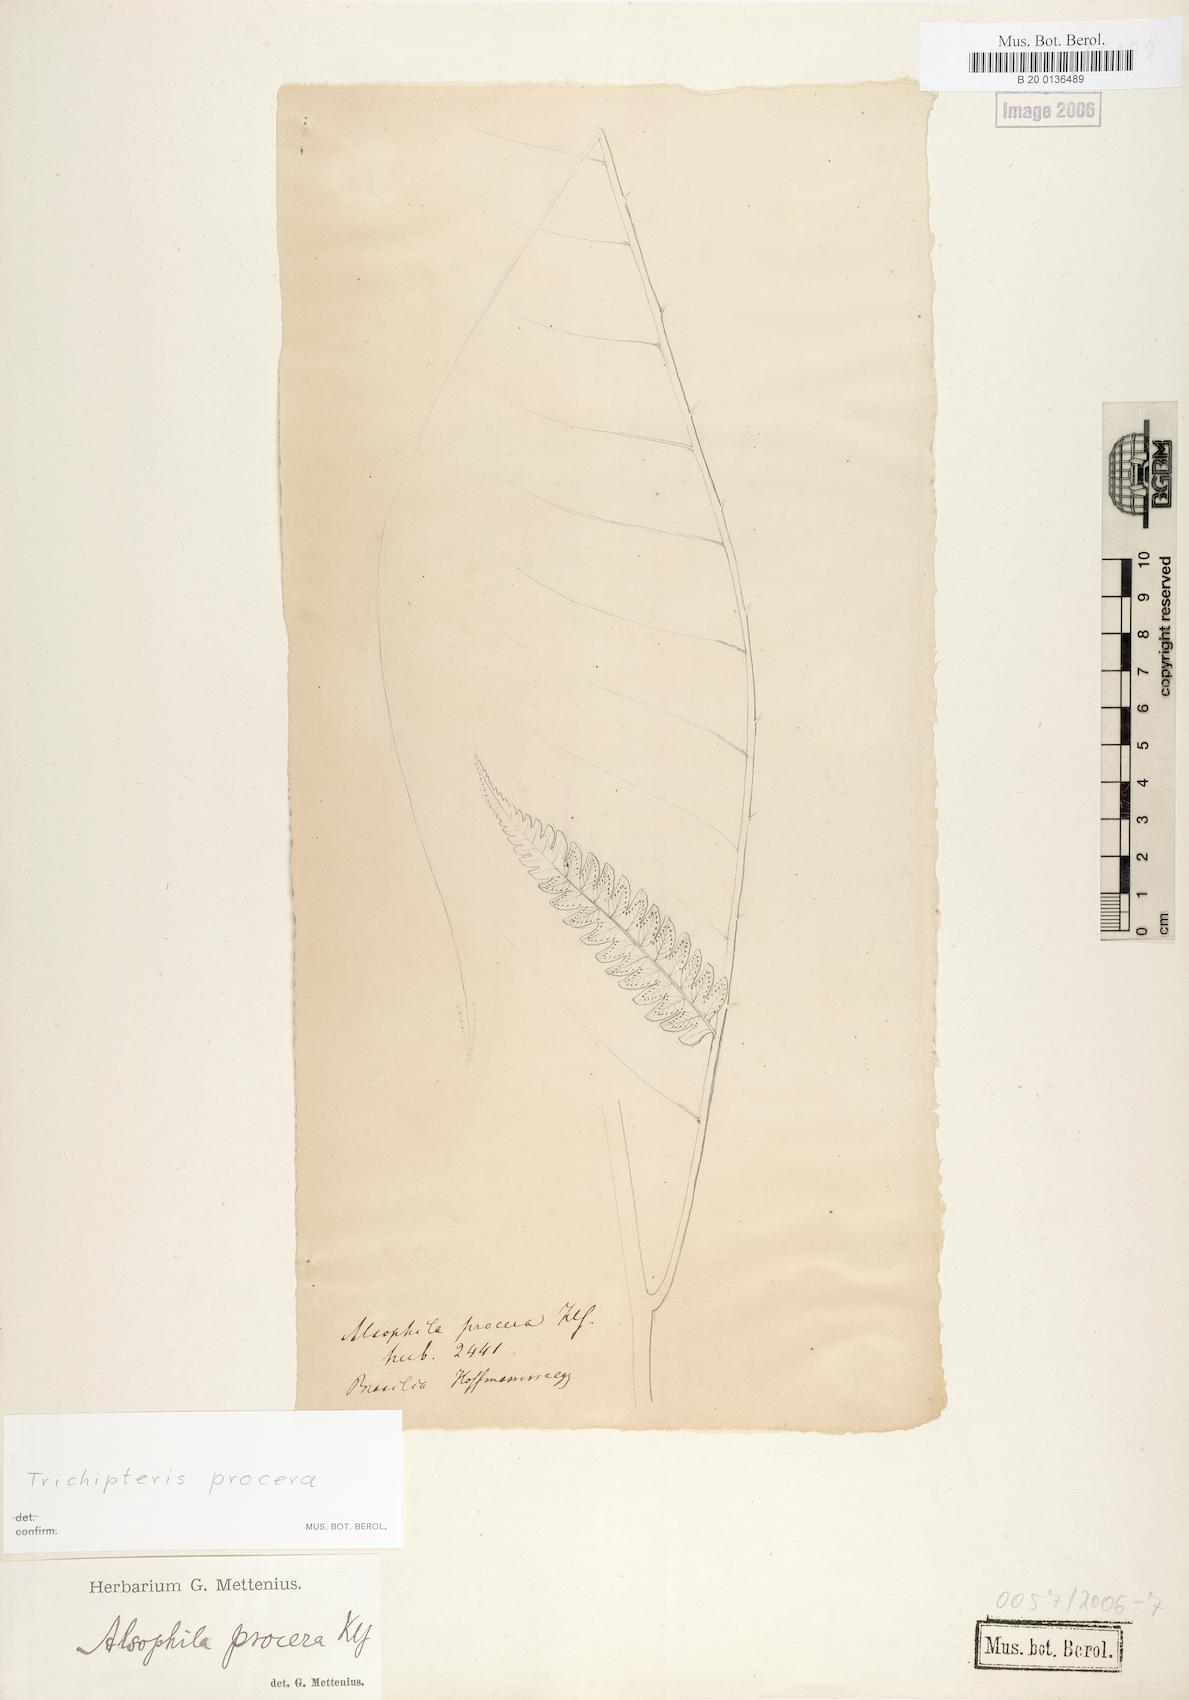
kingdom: Plantae
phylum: Tracheophyta
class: Polypodiopsida
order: Cyatheales
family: Cyatheaceae
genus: Cyathea
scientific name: Cyathea pungens
